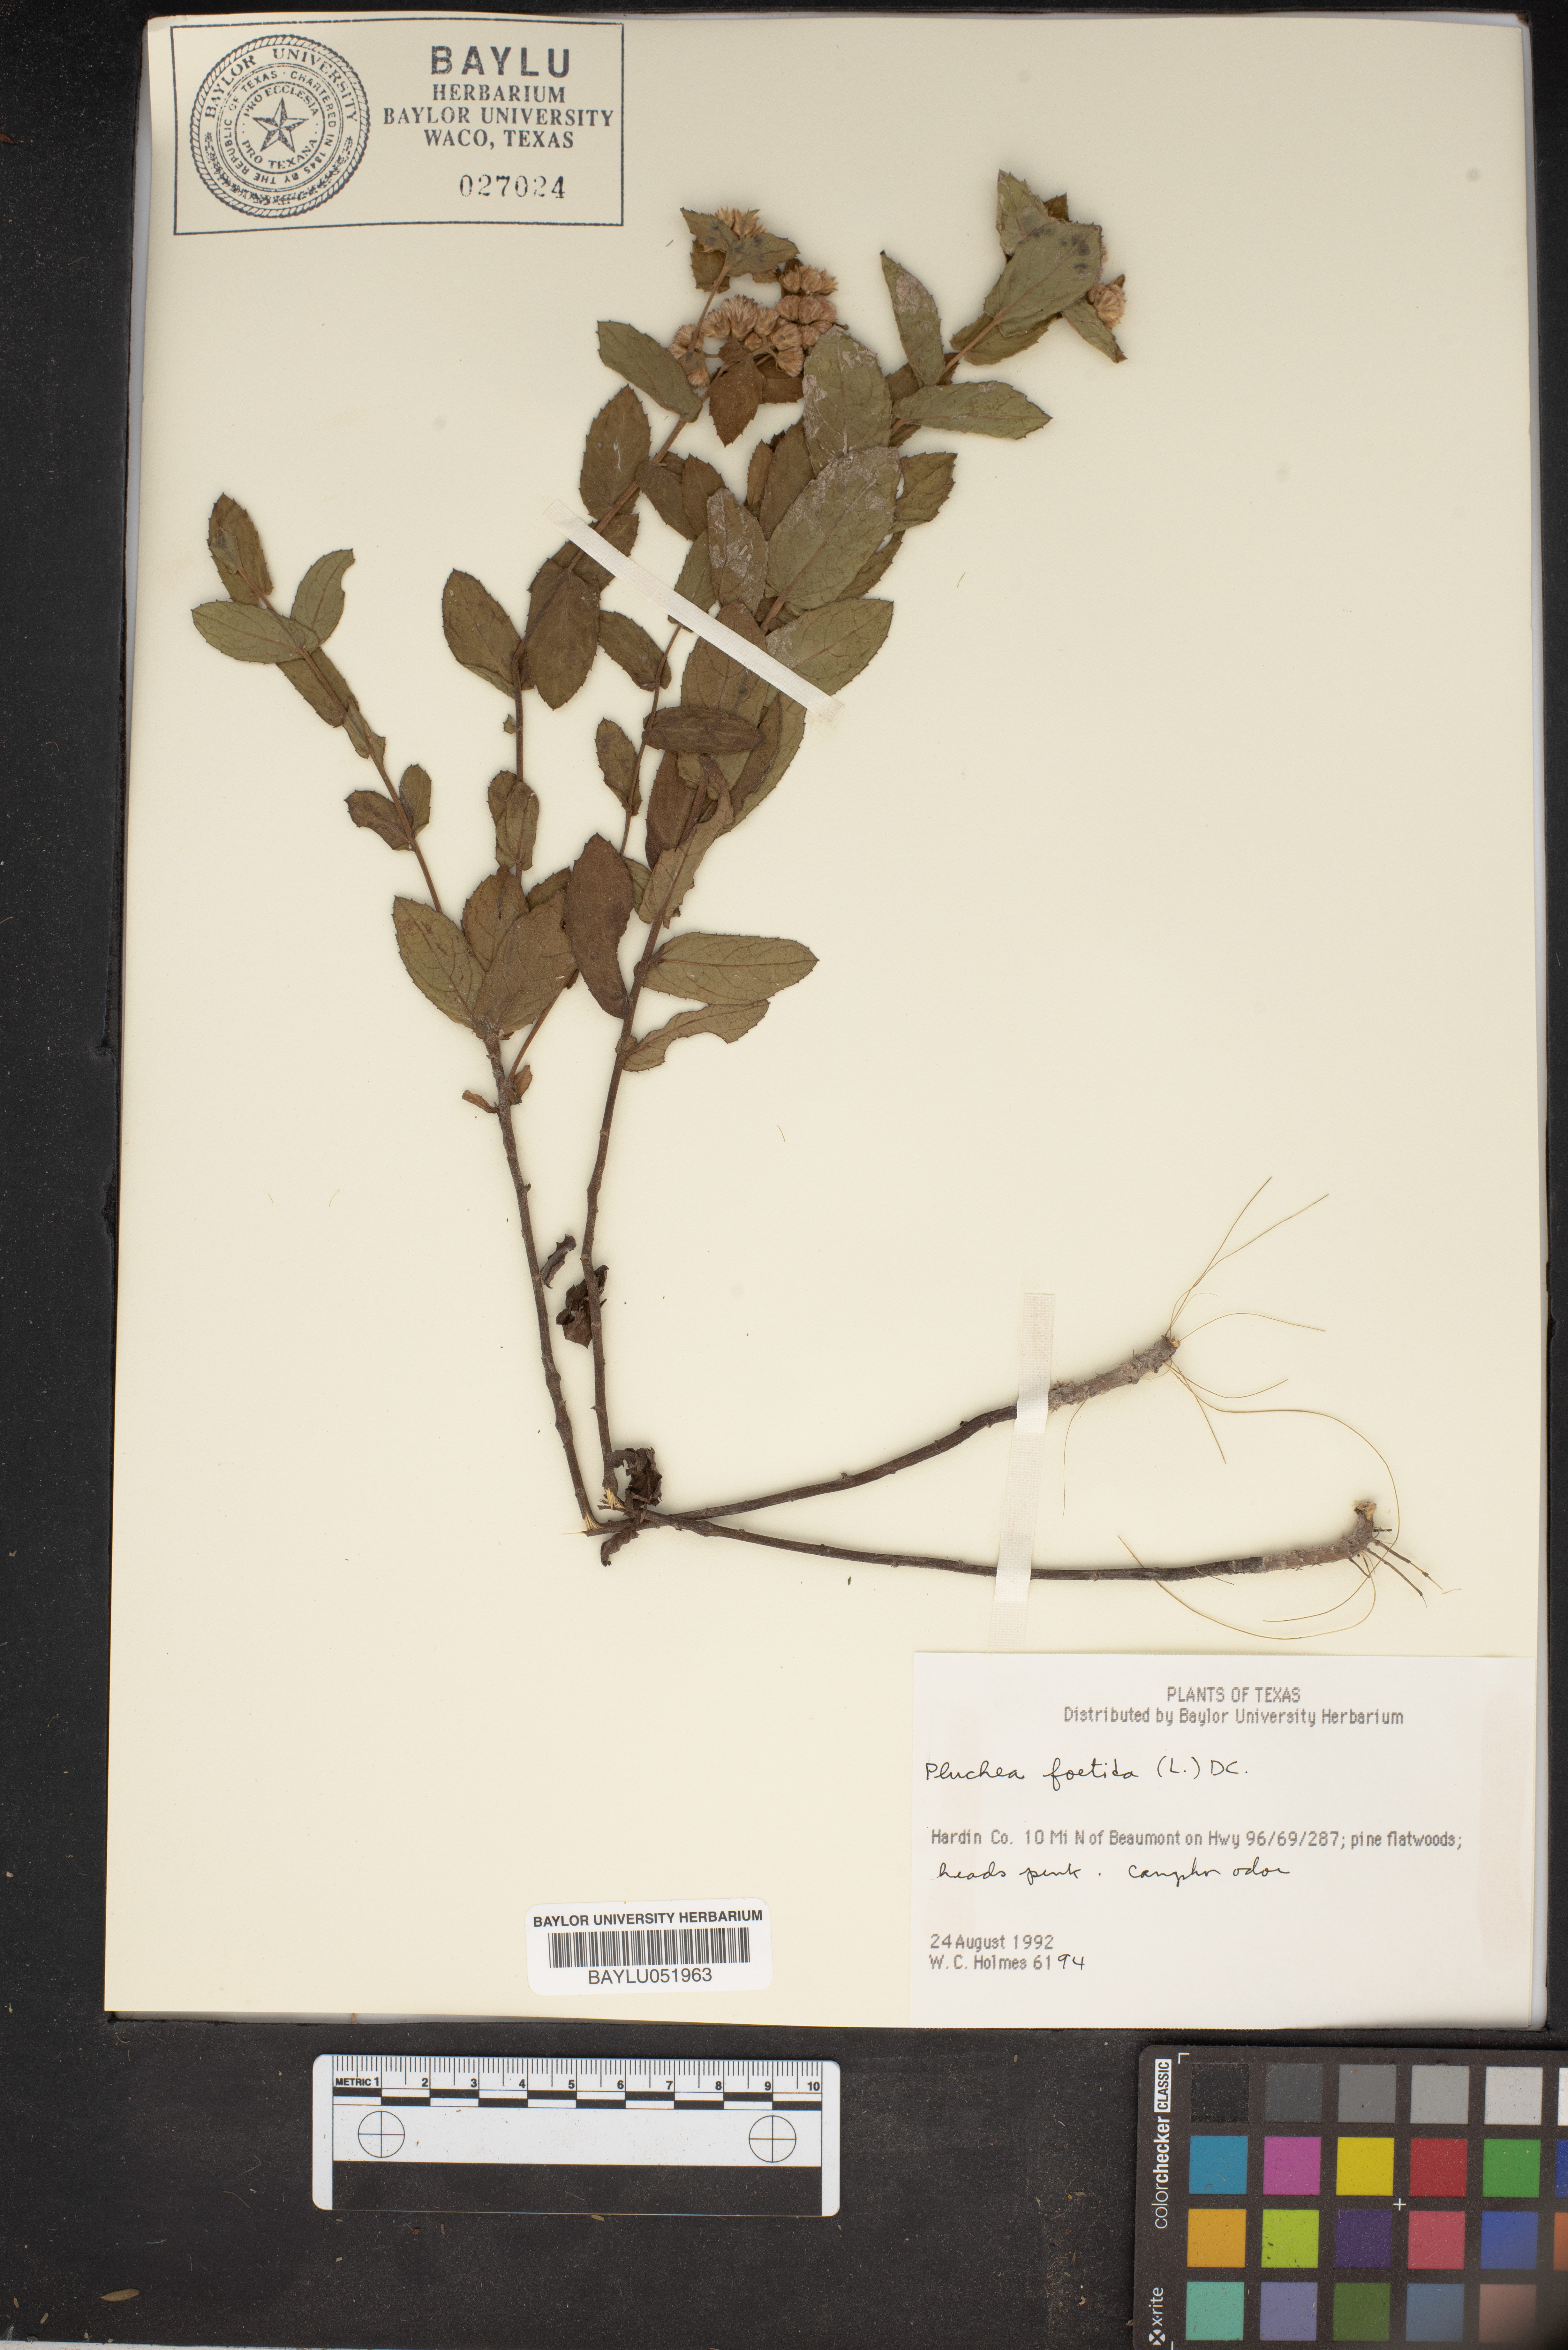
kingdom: Plantae
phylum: Tracheophyta
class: Magnoliopsida
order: Asterales
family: Asteraceae
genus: Pluchea
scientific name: Pluchea foetida
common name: Stinking camphorweed
